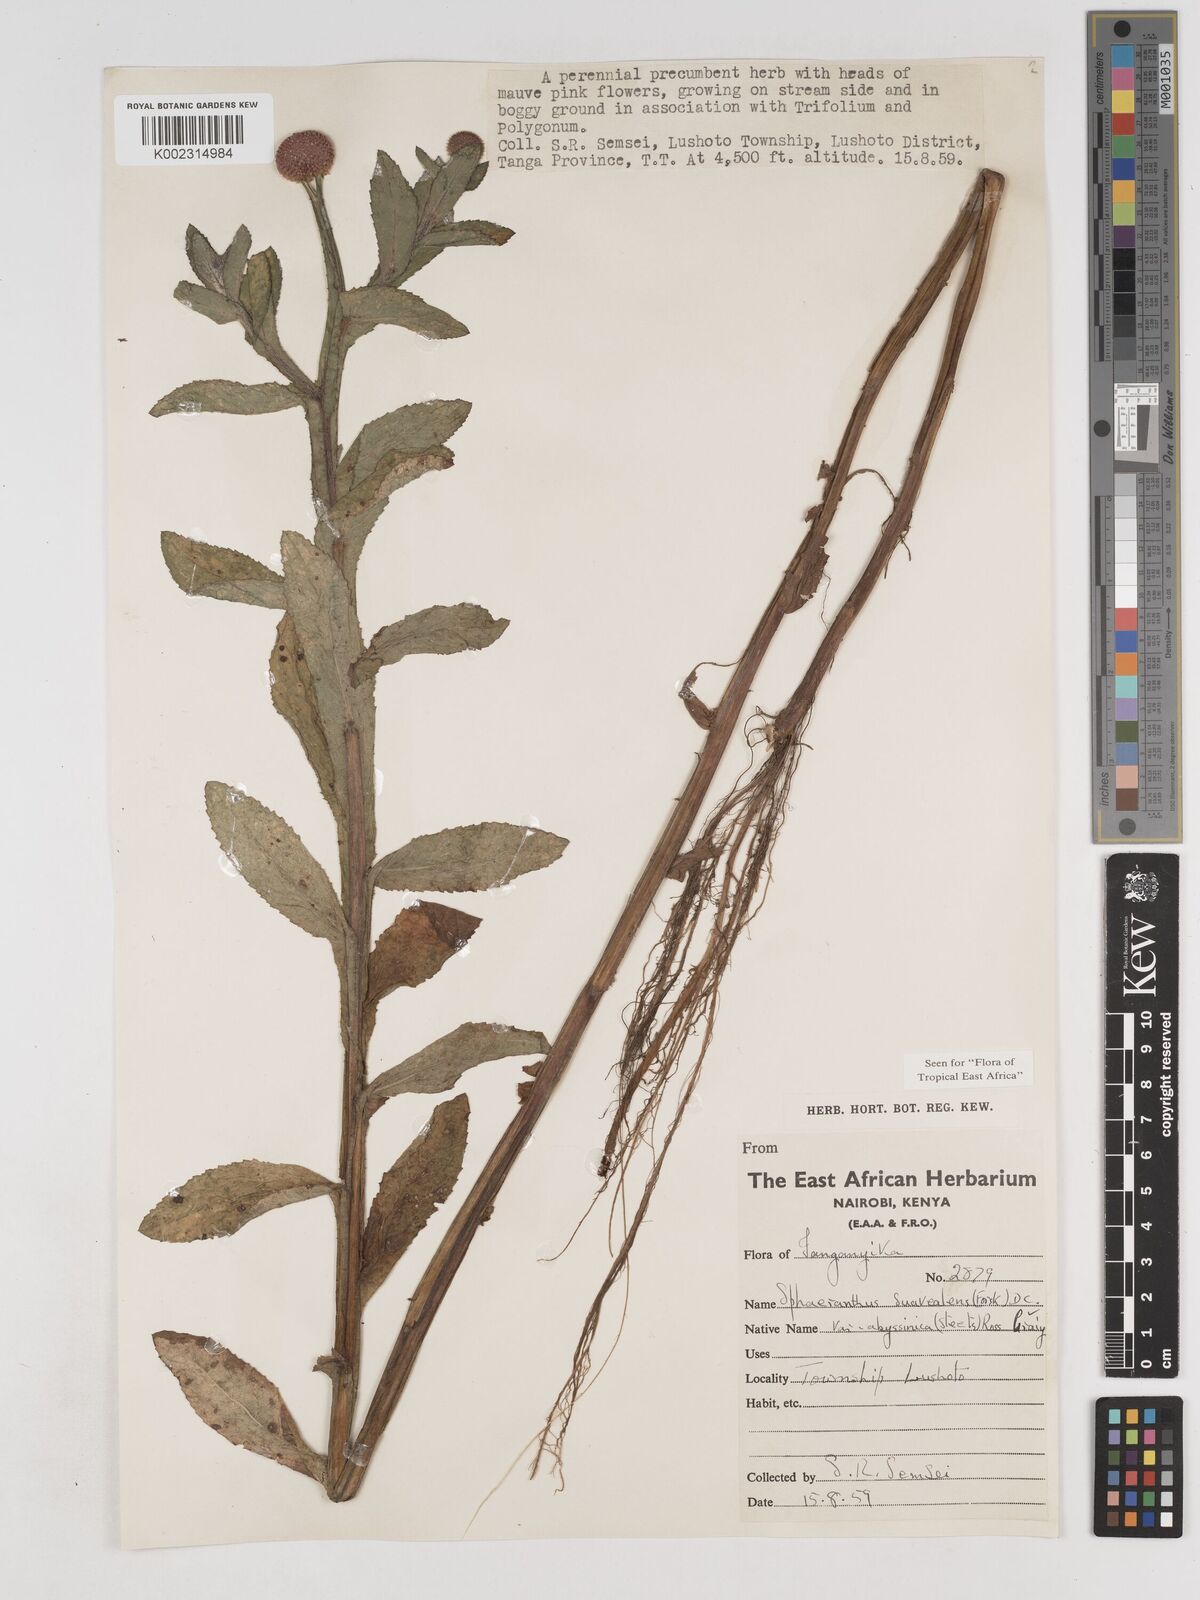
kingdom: Plantae
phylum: Tracheophyta
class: Magnoliopsida
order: Asterales
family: Asteraceae
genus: Sphaeranthus
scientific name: Sphaeranthus suaveolens
